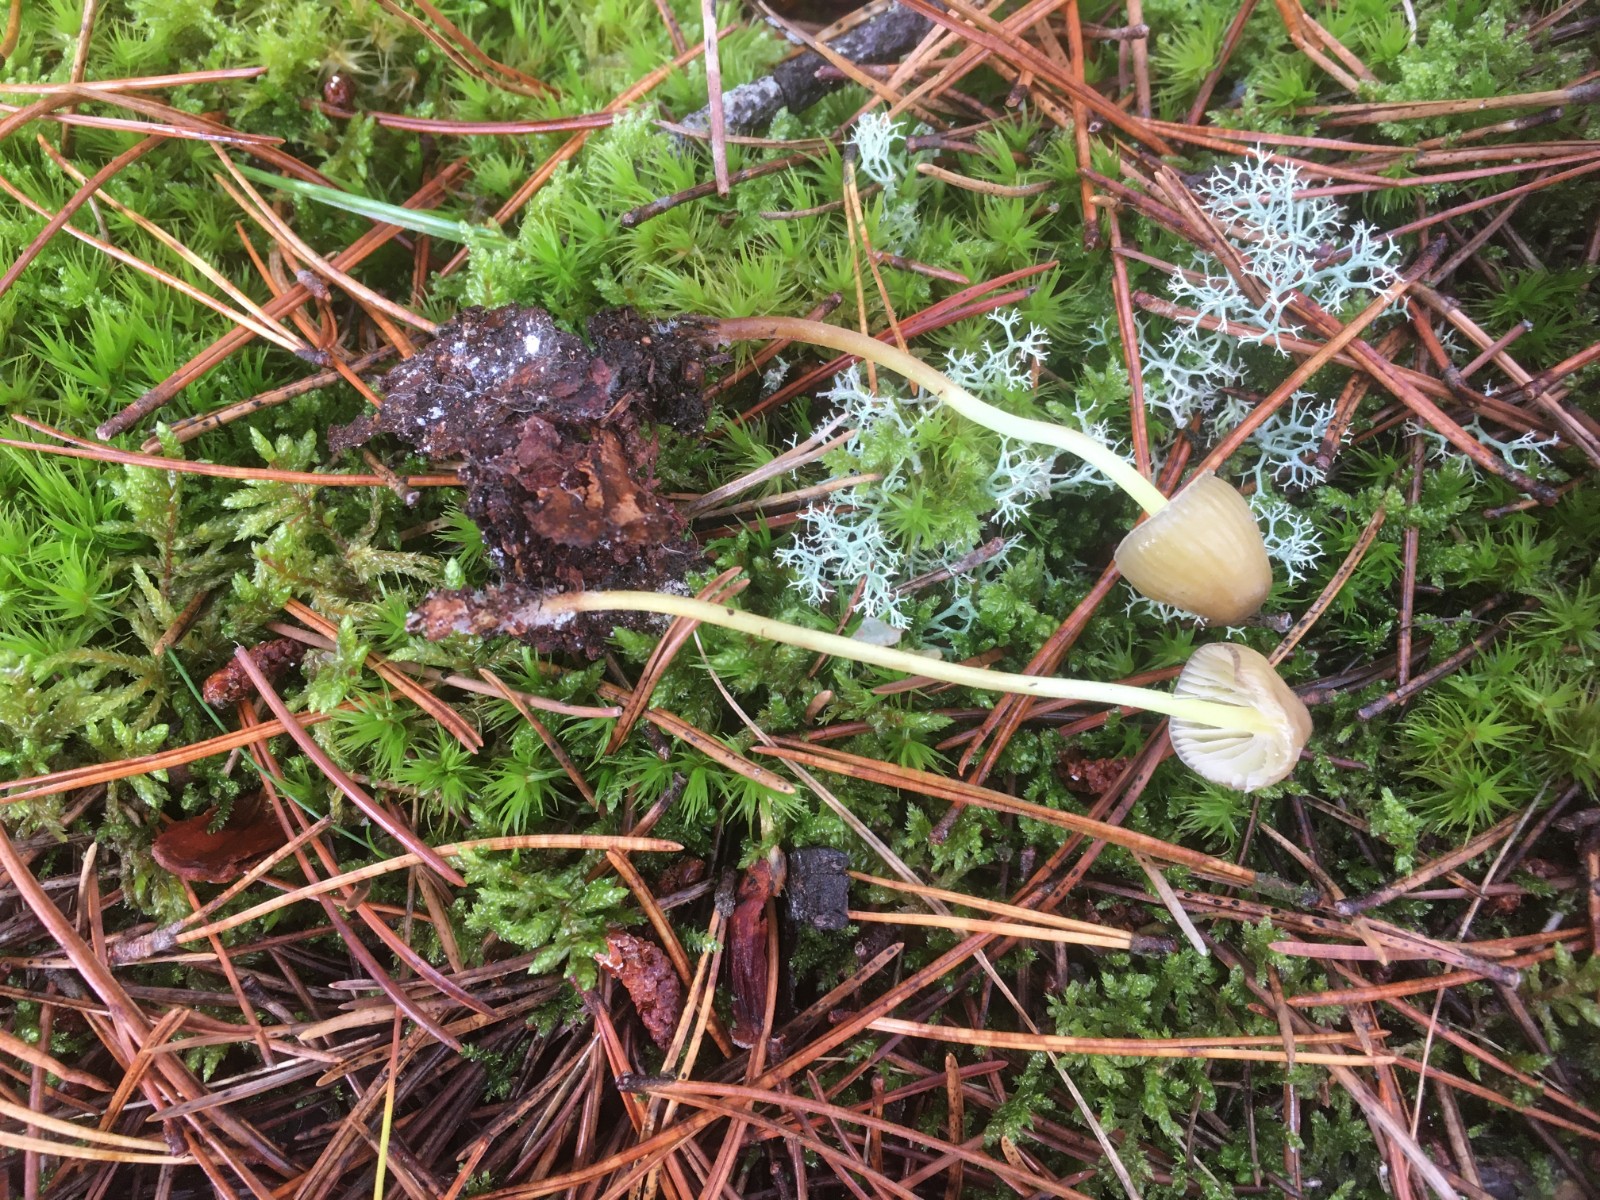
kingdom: Fungi
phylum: Basidiomycota
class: Agaricomycetes
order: Agaricales
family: Mycenaceae
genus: Mycena
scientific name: Mycena epipterygia
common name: gulstokket huesvamp
